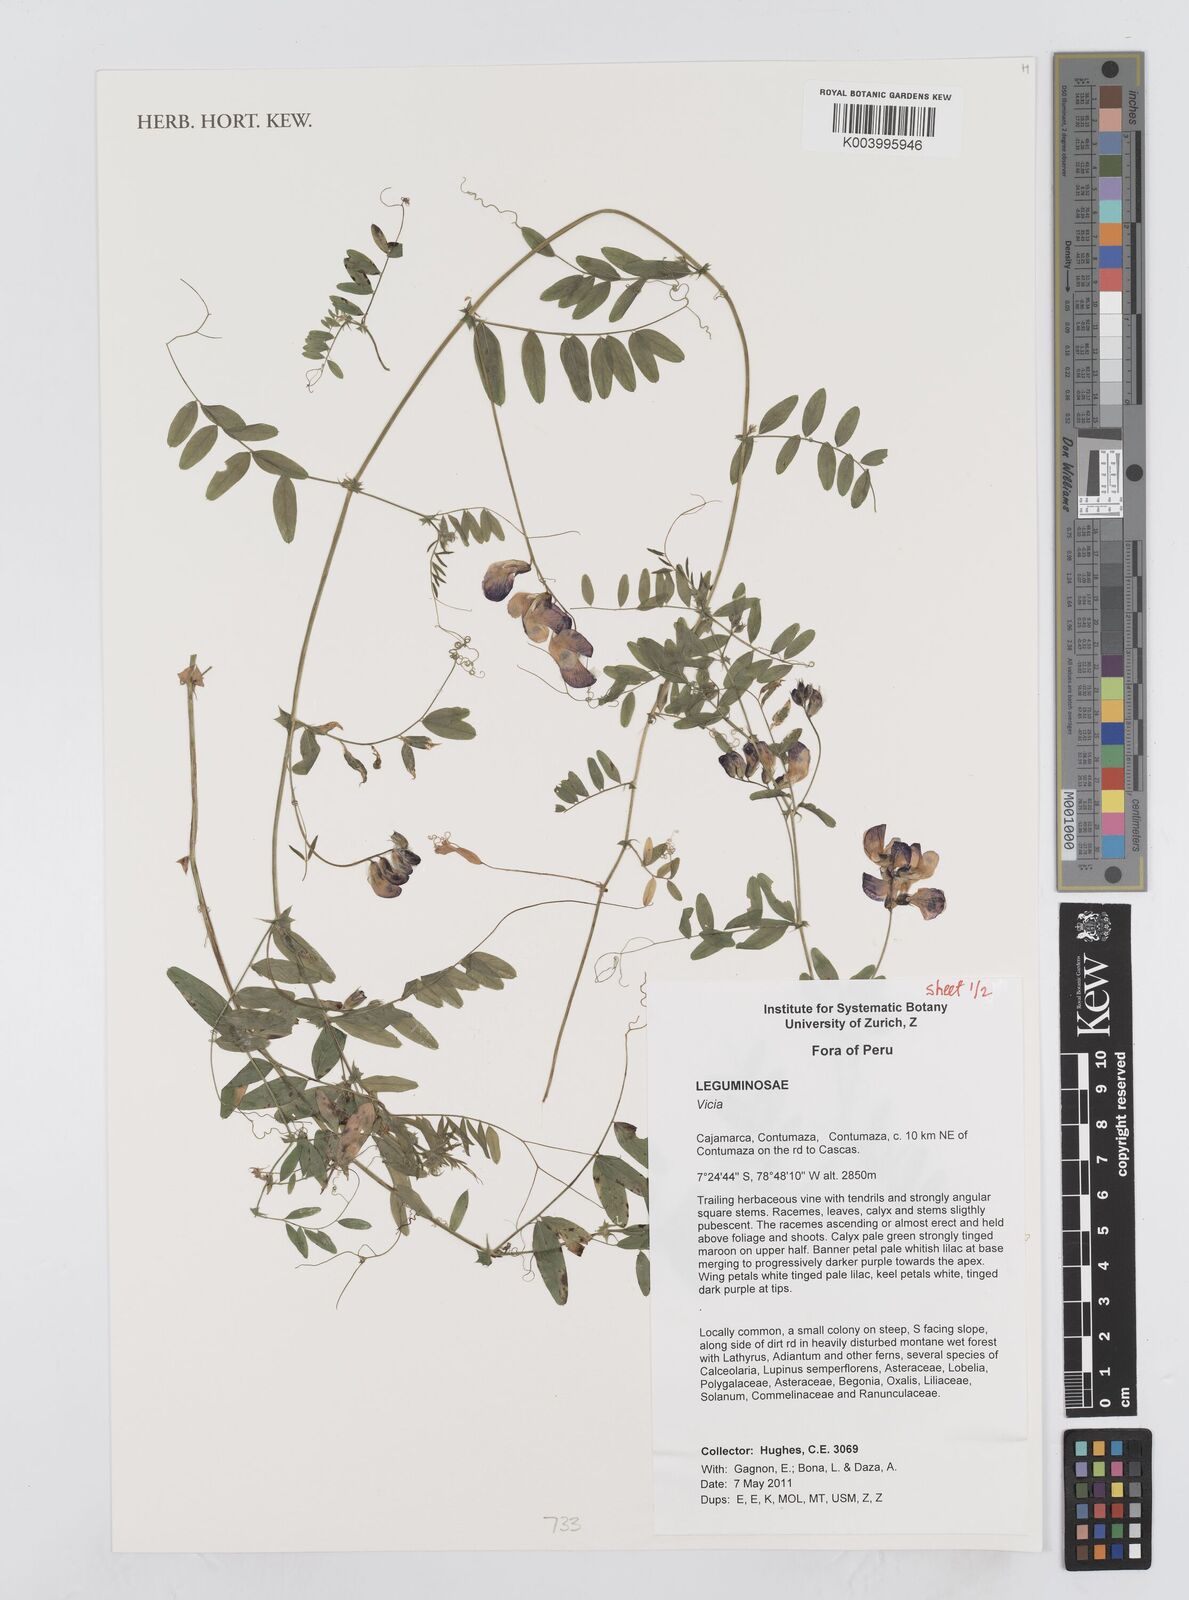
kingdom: Plantae
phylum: Tracheophyta
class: Magnoliopsida
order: Fabales
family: Fabaceae
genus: Vicia
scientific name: Vicia
